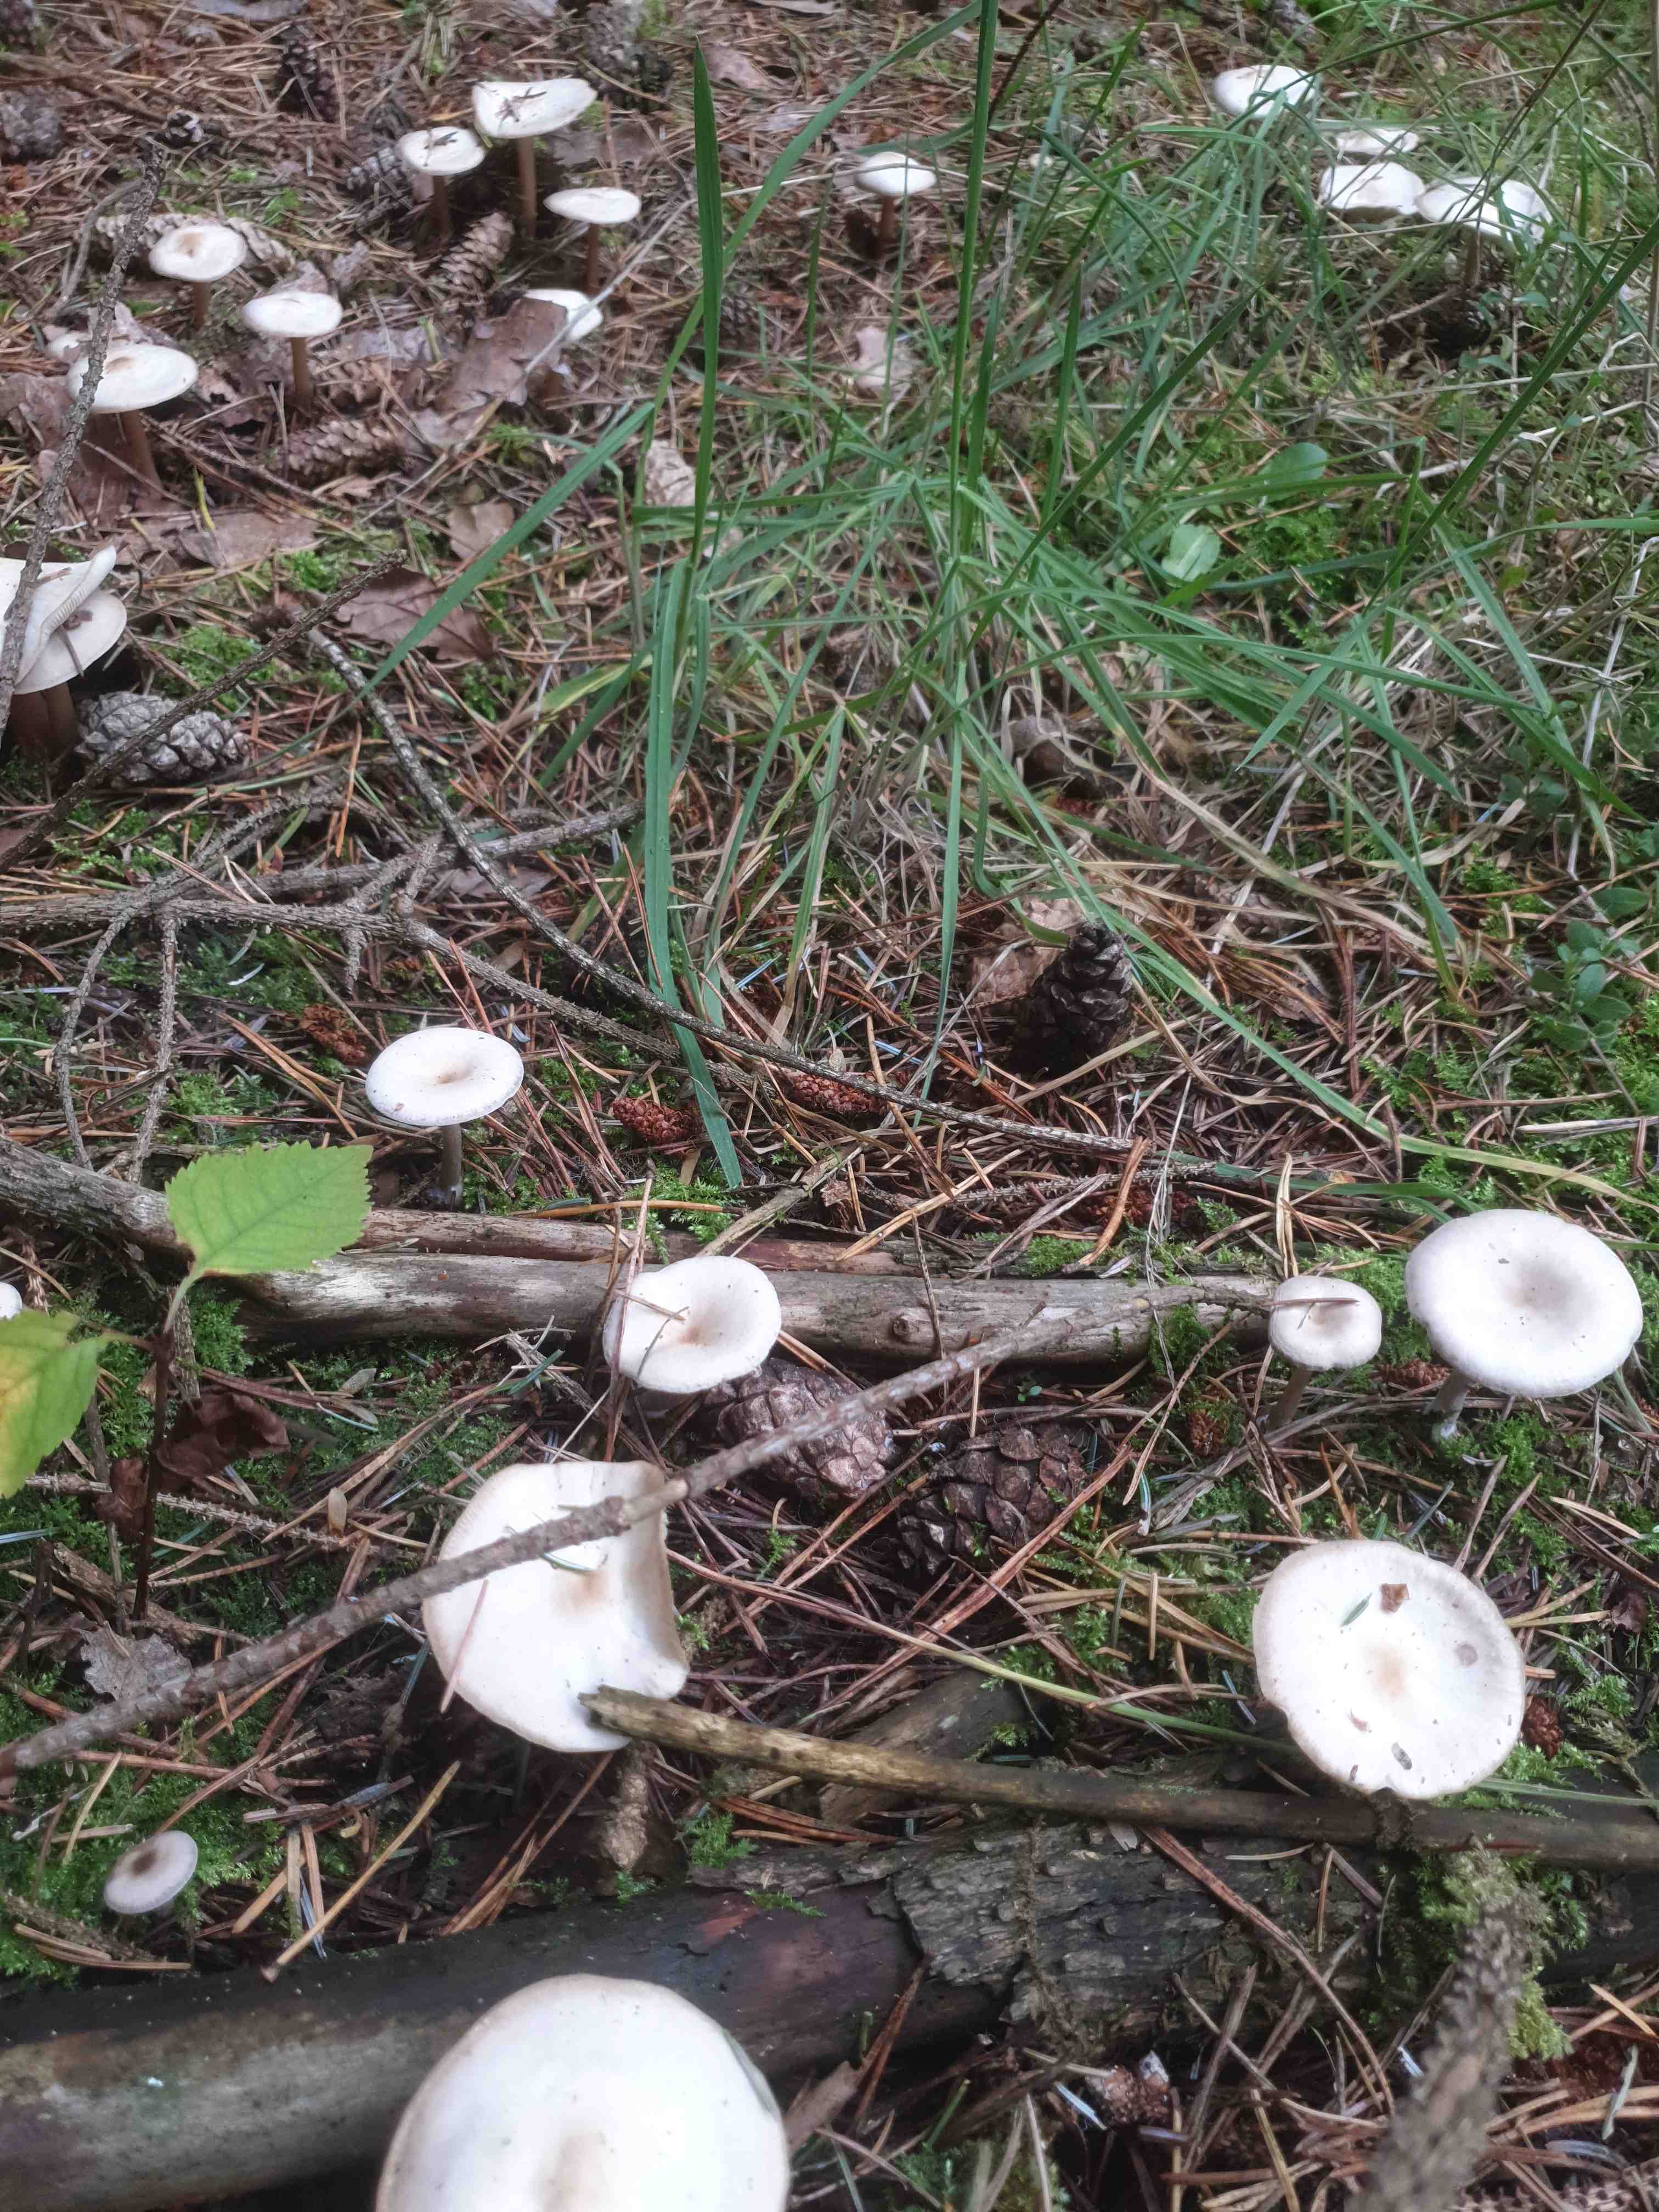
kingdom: Fungi
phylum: Basidiomycota
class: Agaricomycetes
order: Agaricales
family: Tricholomataceae
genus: Clitocybe
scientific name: Clitocybe
